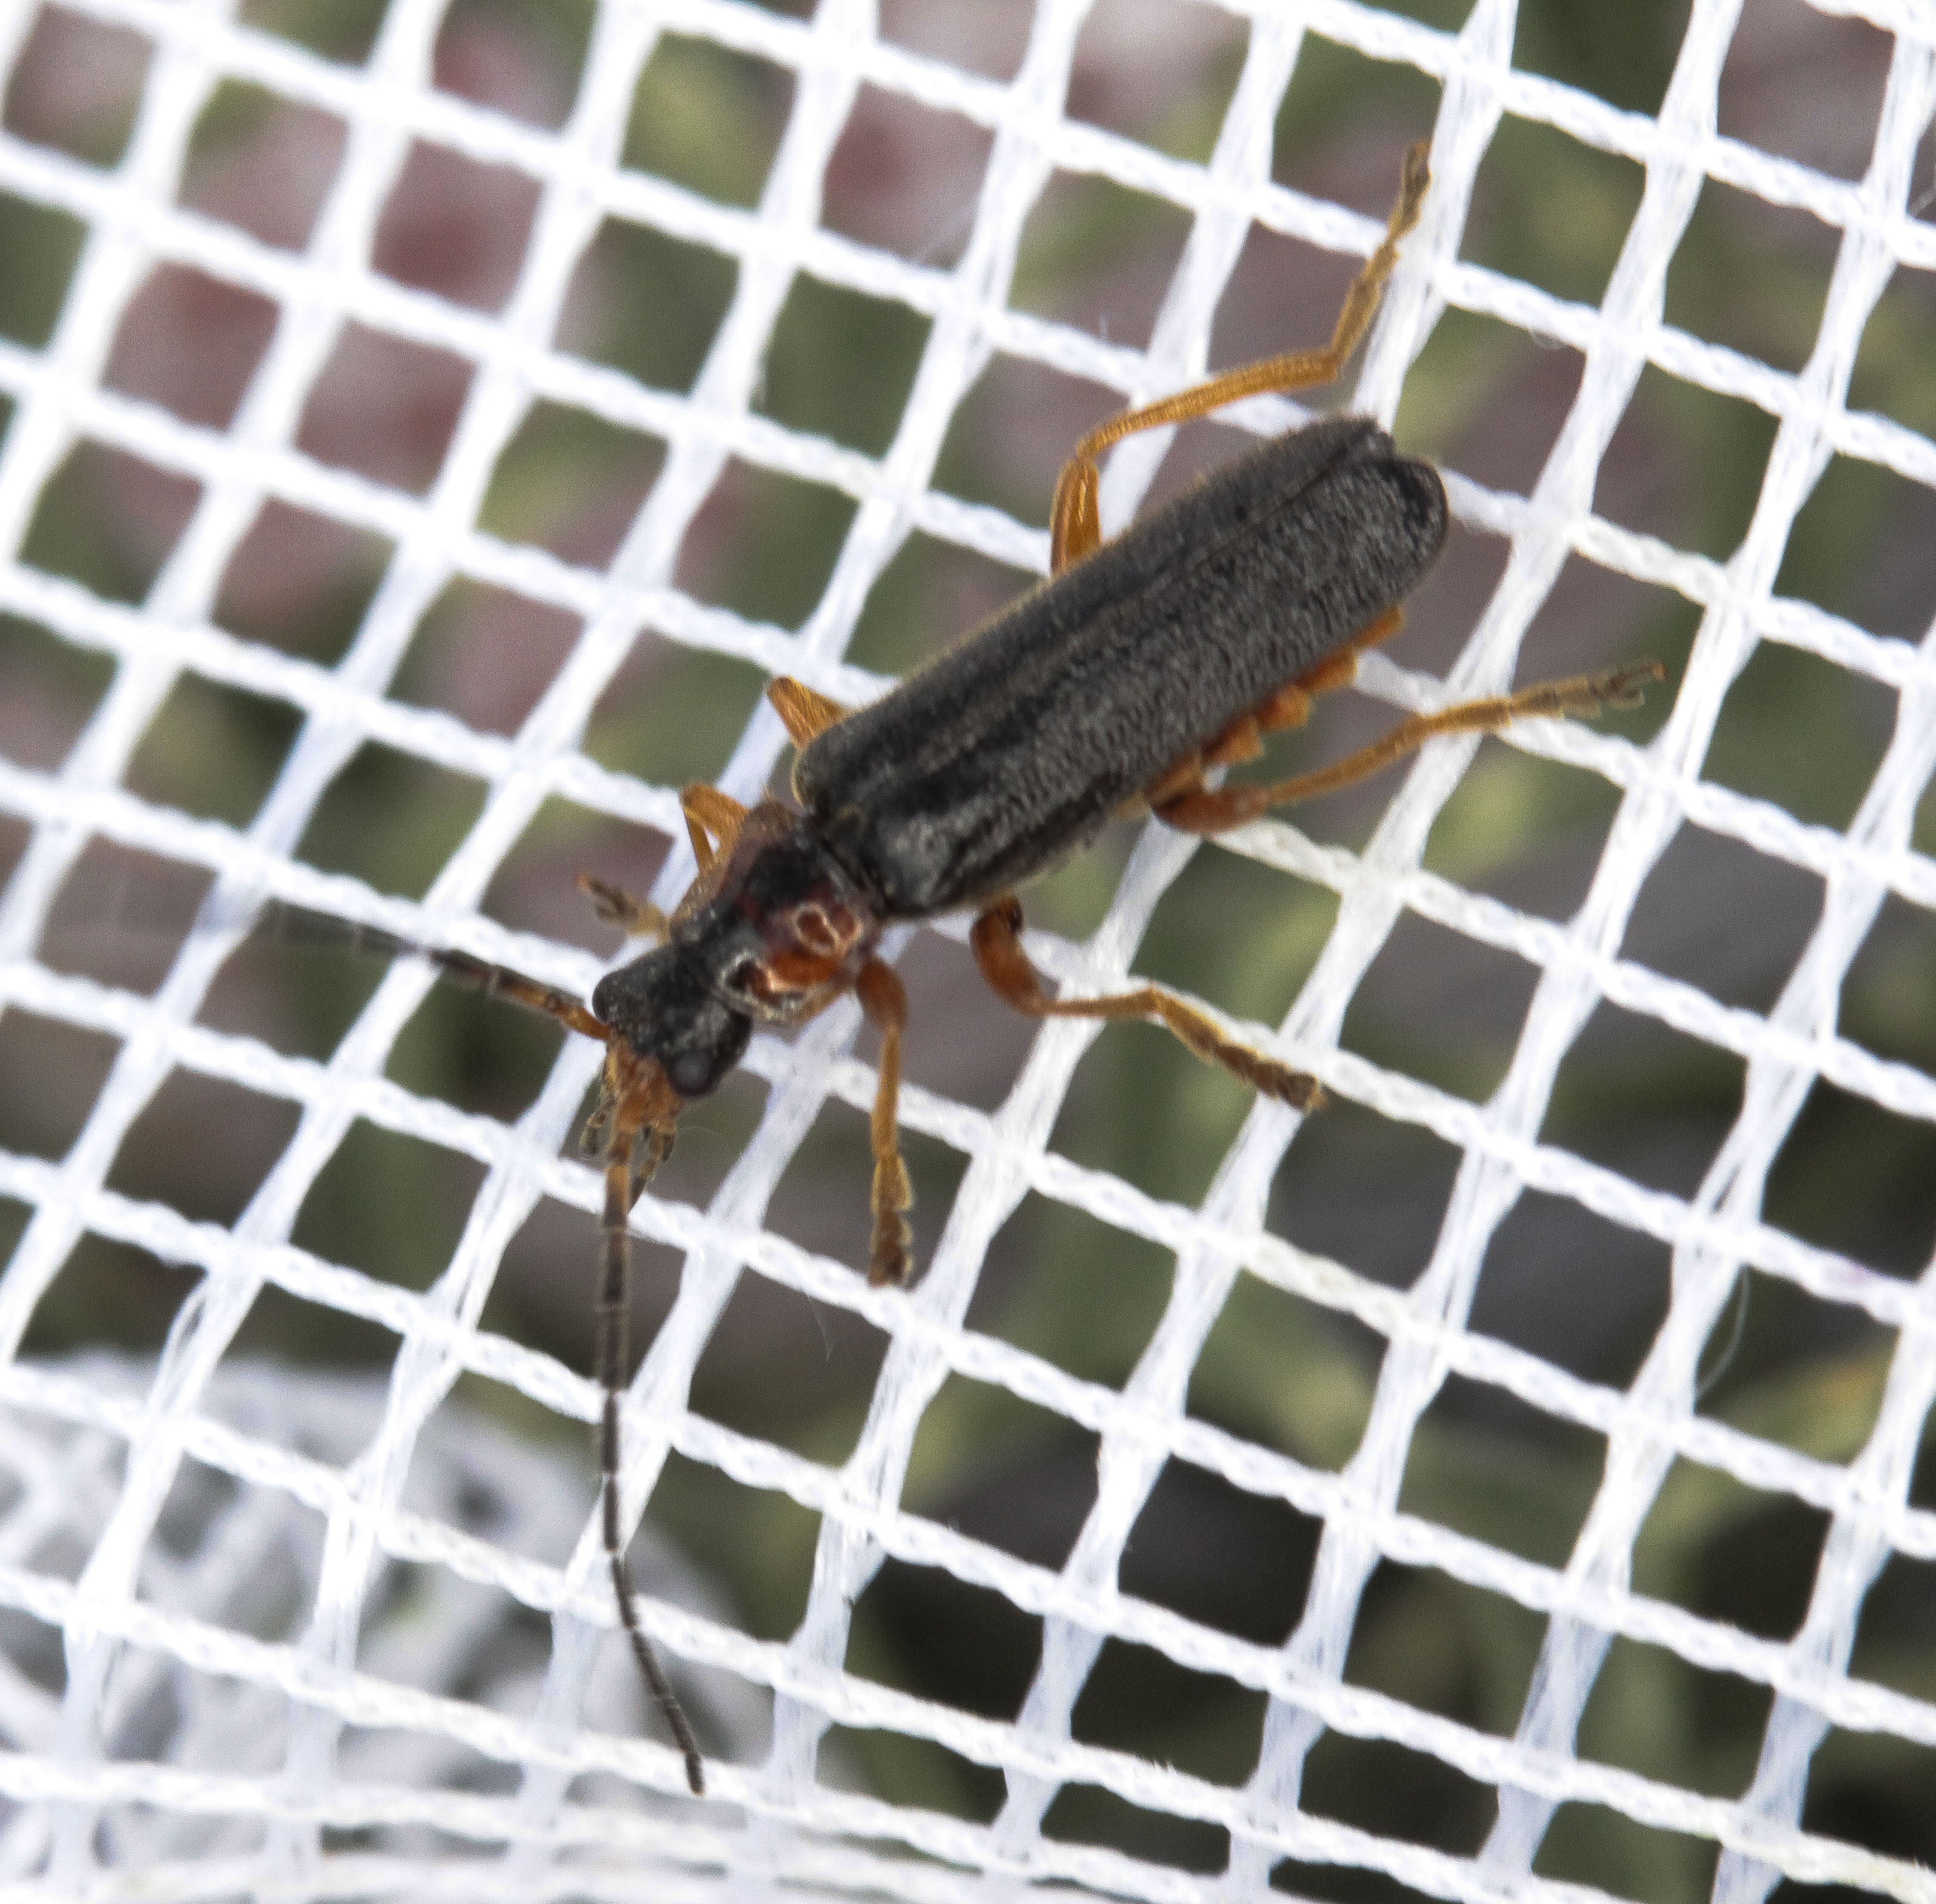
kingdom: Animalia
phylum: Arthropoda
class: Insecta
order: Coleoptera
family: Cantharidae
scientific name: Cantharidae
